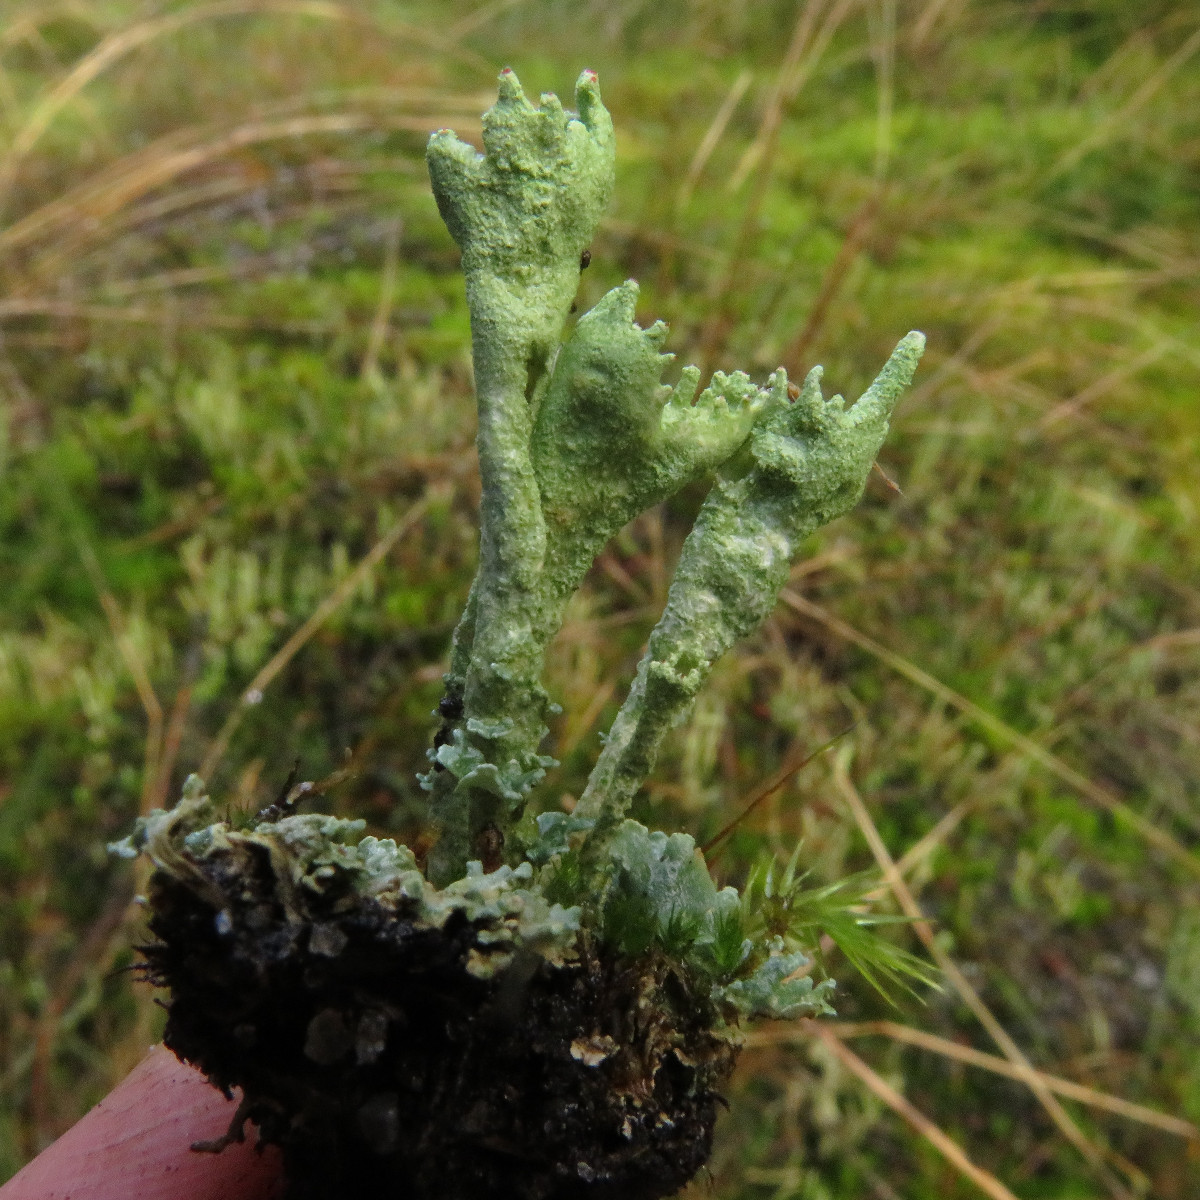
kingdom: Fungi
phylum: Ascomycota
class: Lecanoromycetes
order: Lecanorales
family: Cladoniaceae
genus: Cladonia
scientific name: Cladonia polydactyla
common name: vifte-bægerlav
